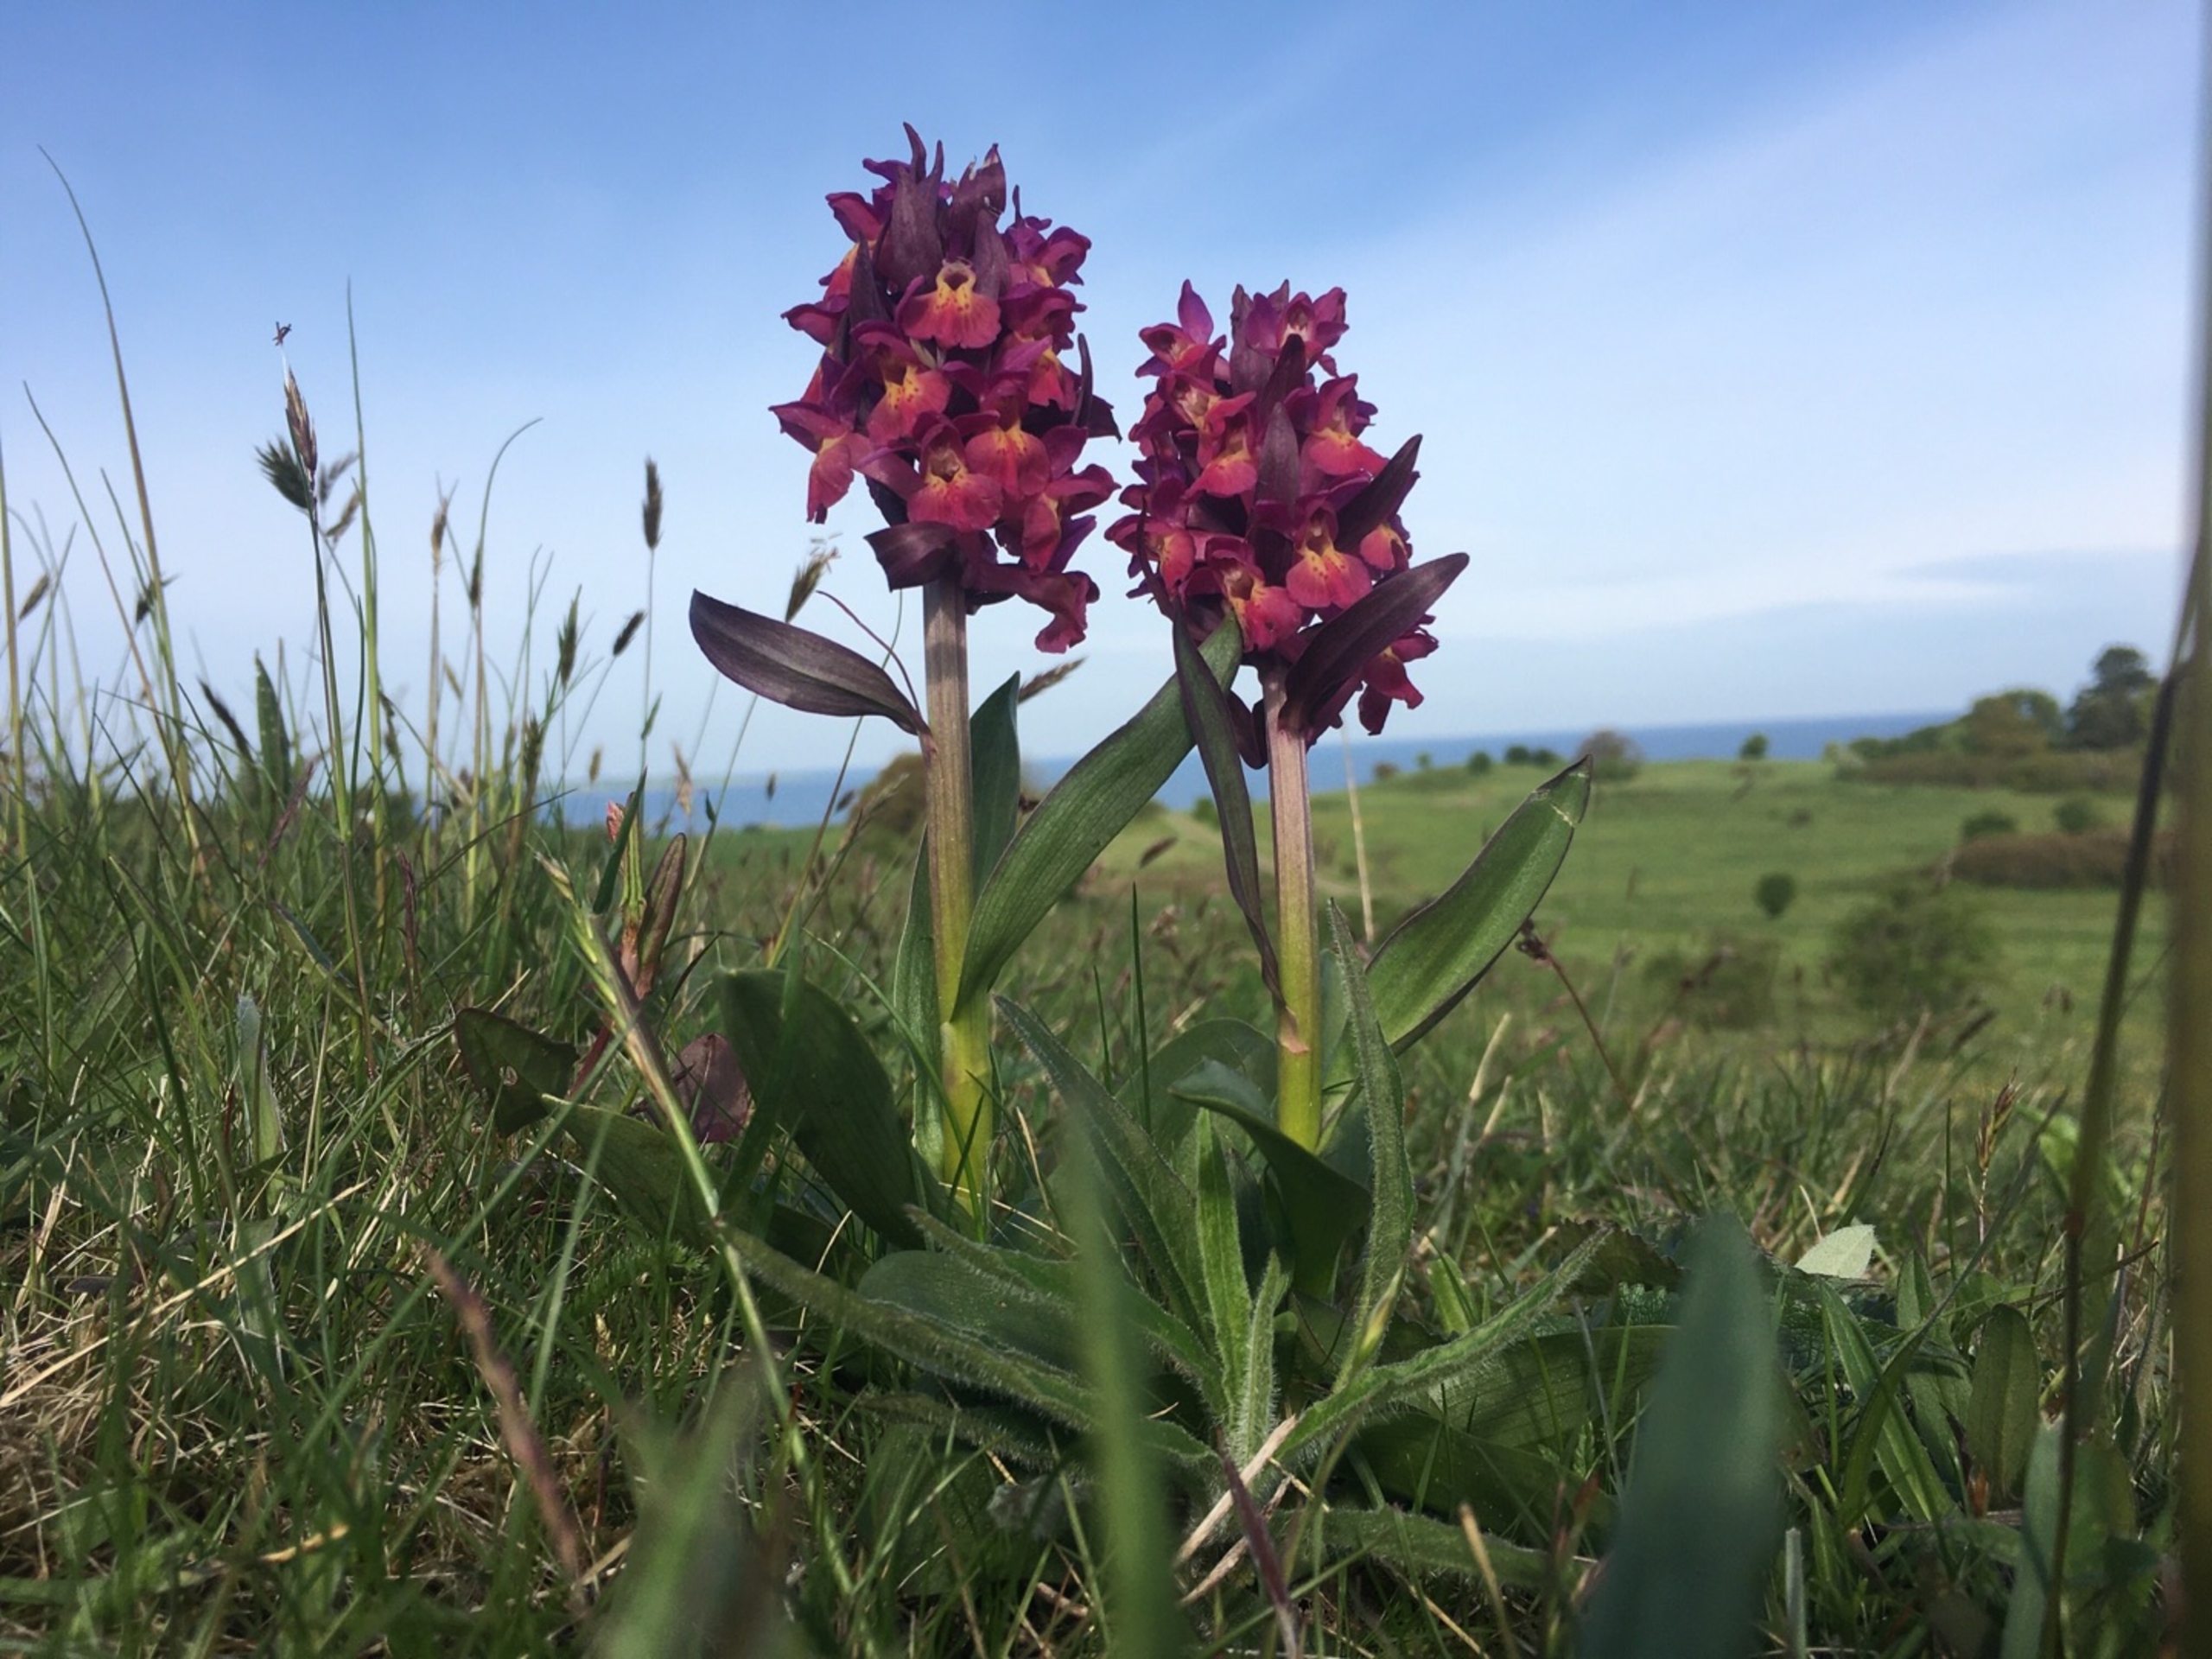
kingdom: Plantae
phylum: Tracheophyta
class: Liliopsida
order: Asparagales
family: Orchidaceae
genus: Dactylorhiza
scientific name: Dactylorhiza sambucina
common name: Hylde-gøgeurt
